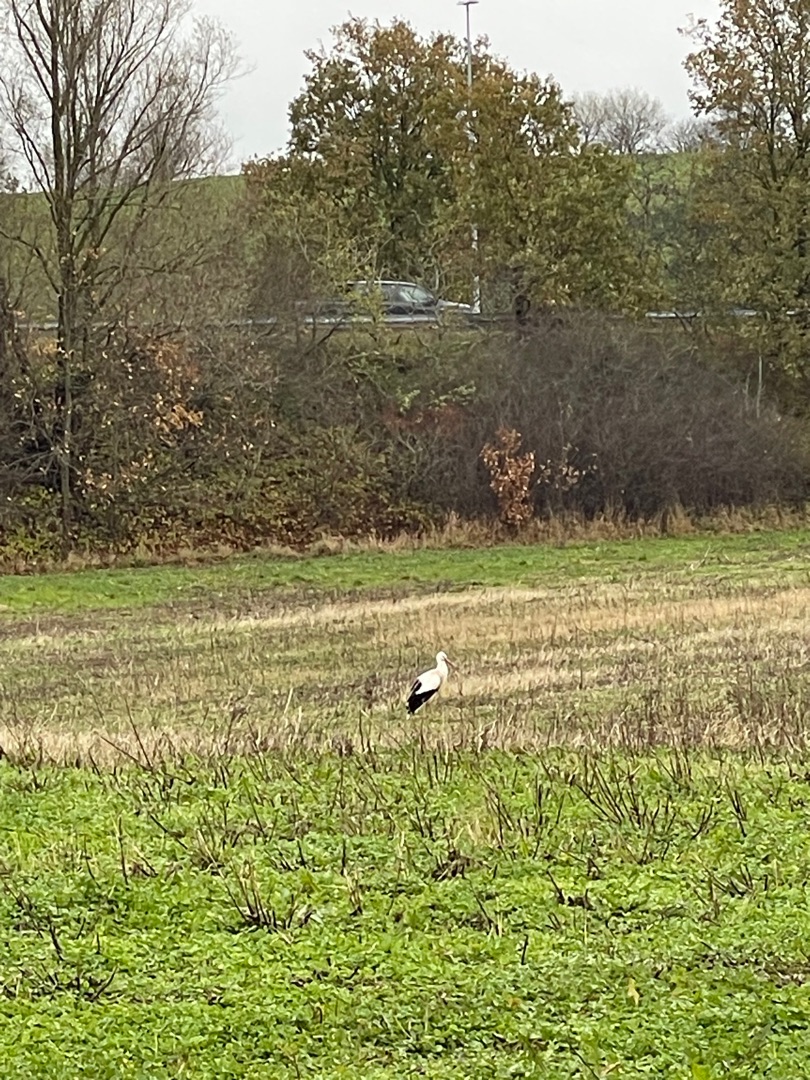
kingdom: Animalia
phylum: Chordata
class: Aves
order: Ciconiiformes
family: Ciconiidae
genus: Ciconia
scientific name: Ciconia ciconia
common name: Hvid stork
